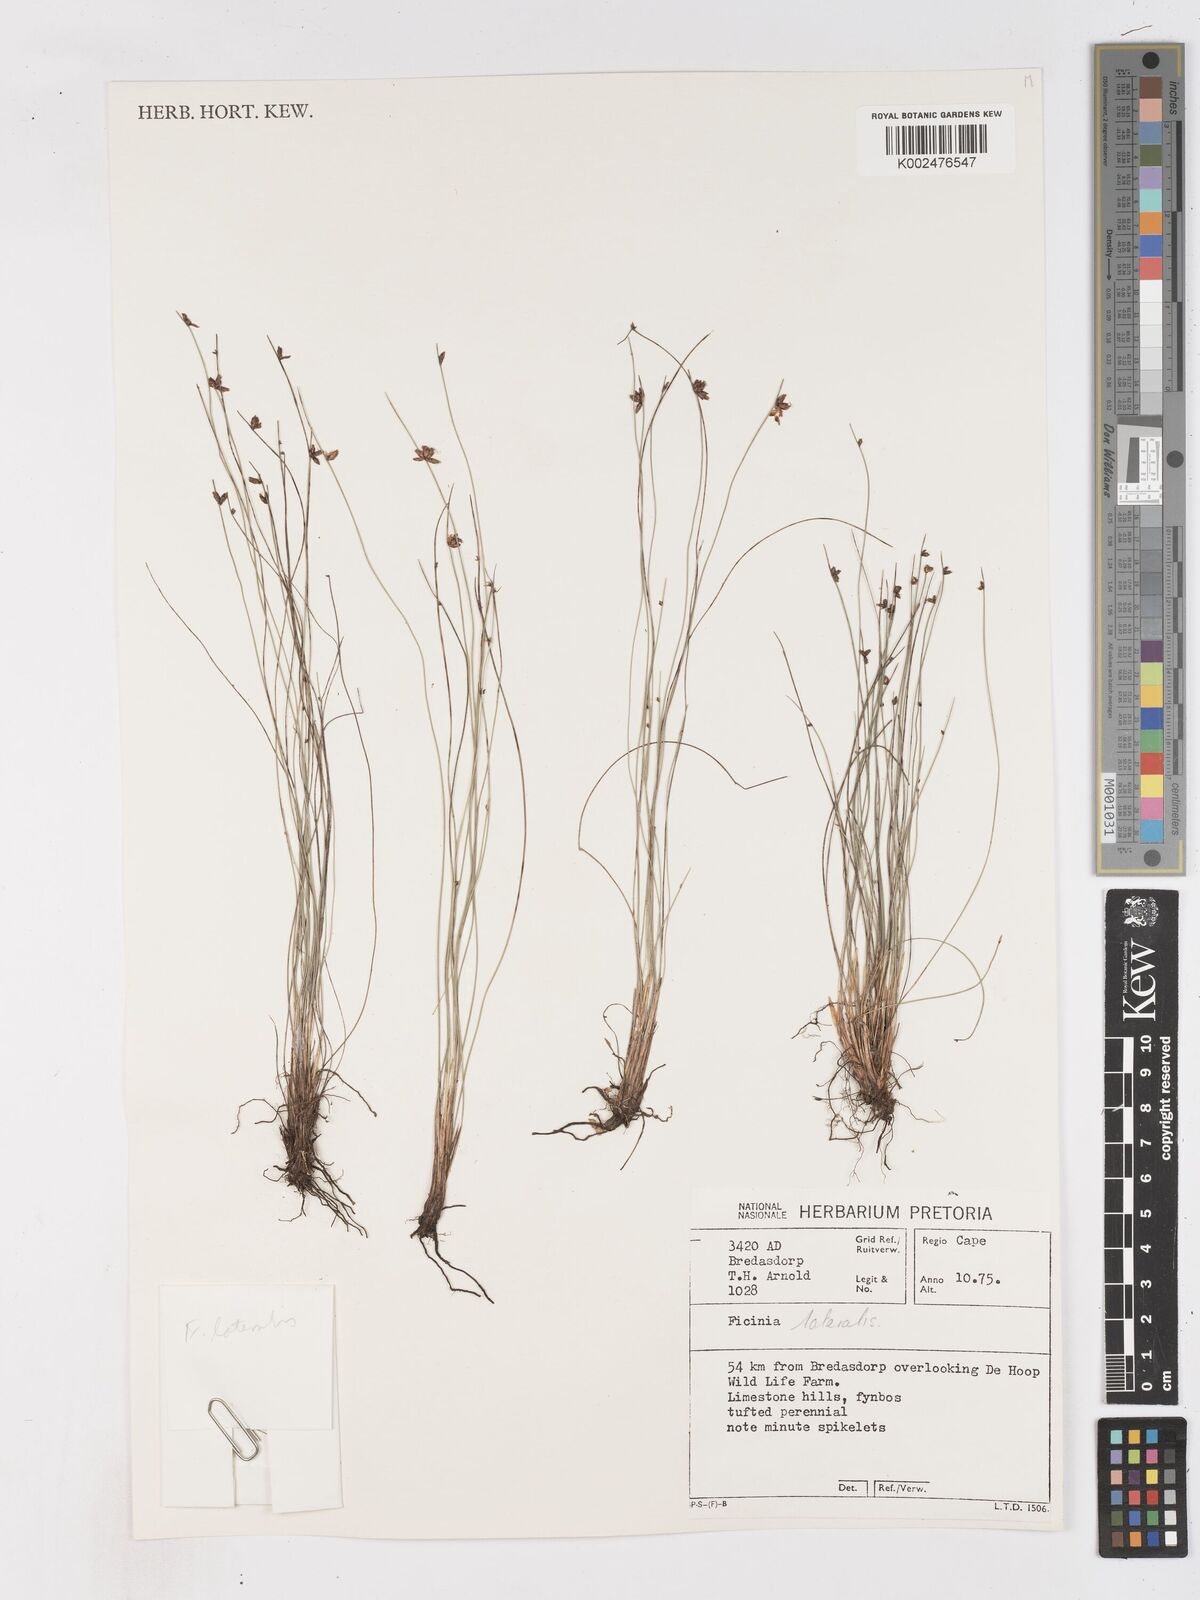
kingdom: Plantae
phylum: Tracheophyta
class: Liliopsida
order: Poales
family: Cyperaceae
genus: Ficinia
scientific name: Ficinia
